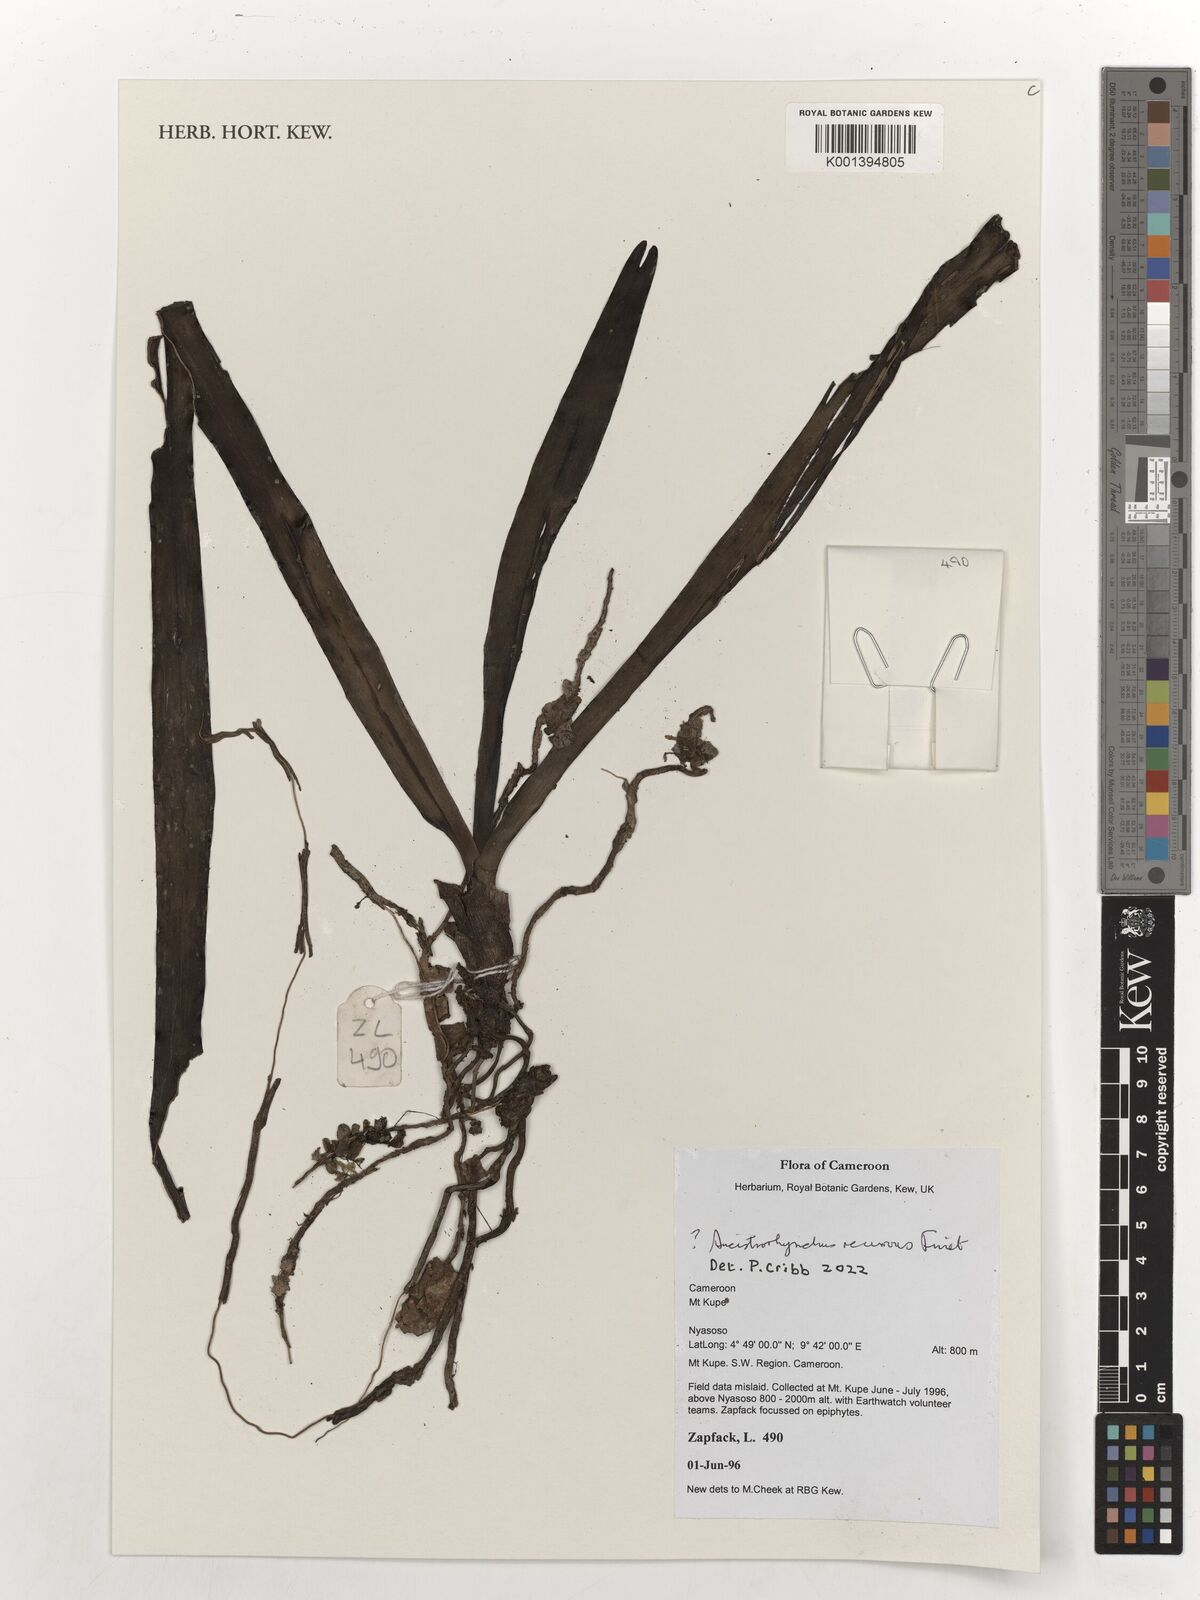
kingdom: Plantae
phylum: Tracheophyta
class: Liliopsida
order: Asparagales
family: Orchidaceae
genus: Ancistrorhynchus
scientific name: Ancistrorhynchus recurvus
